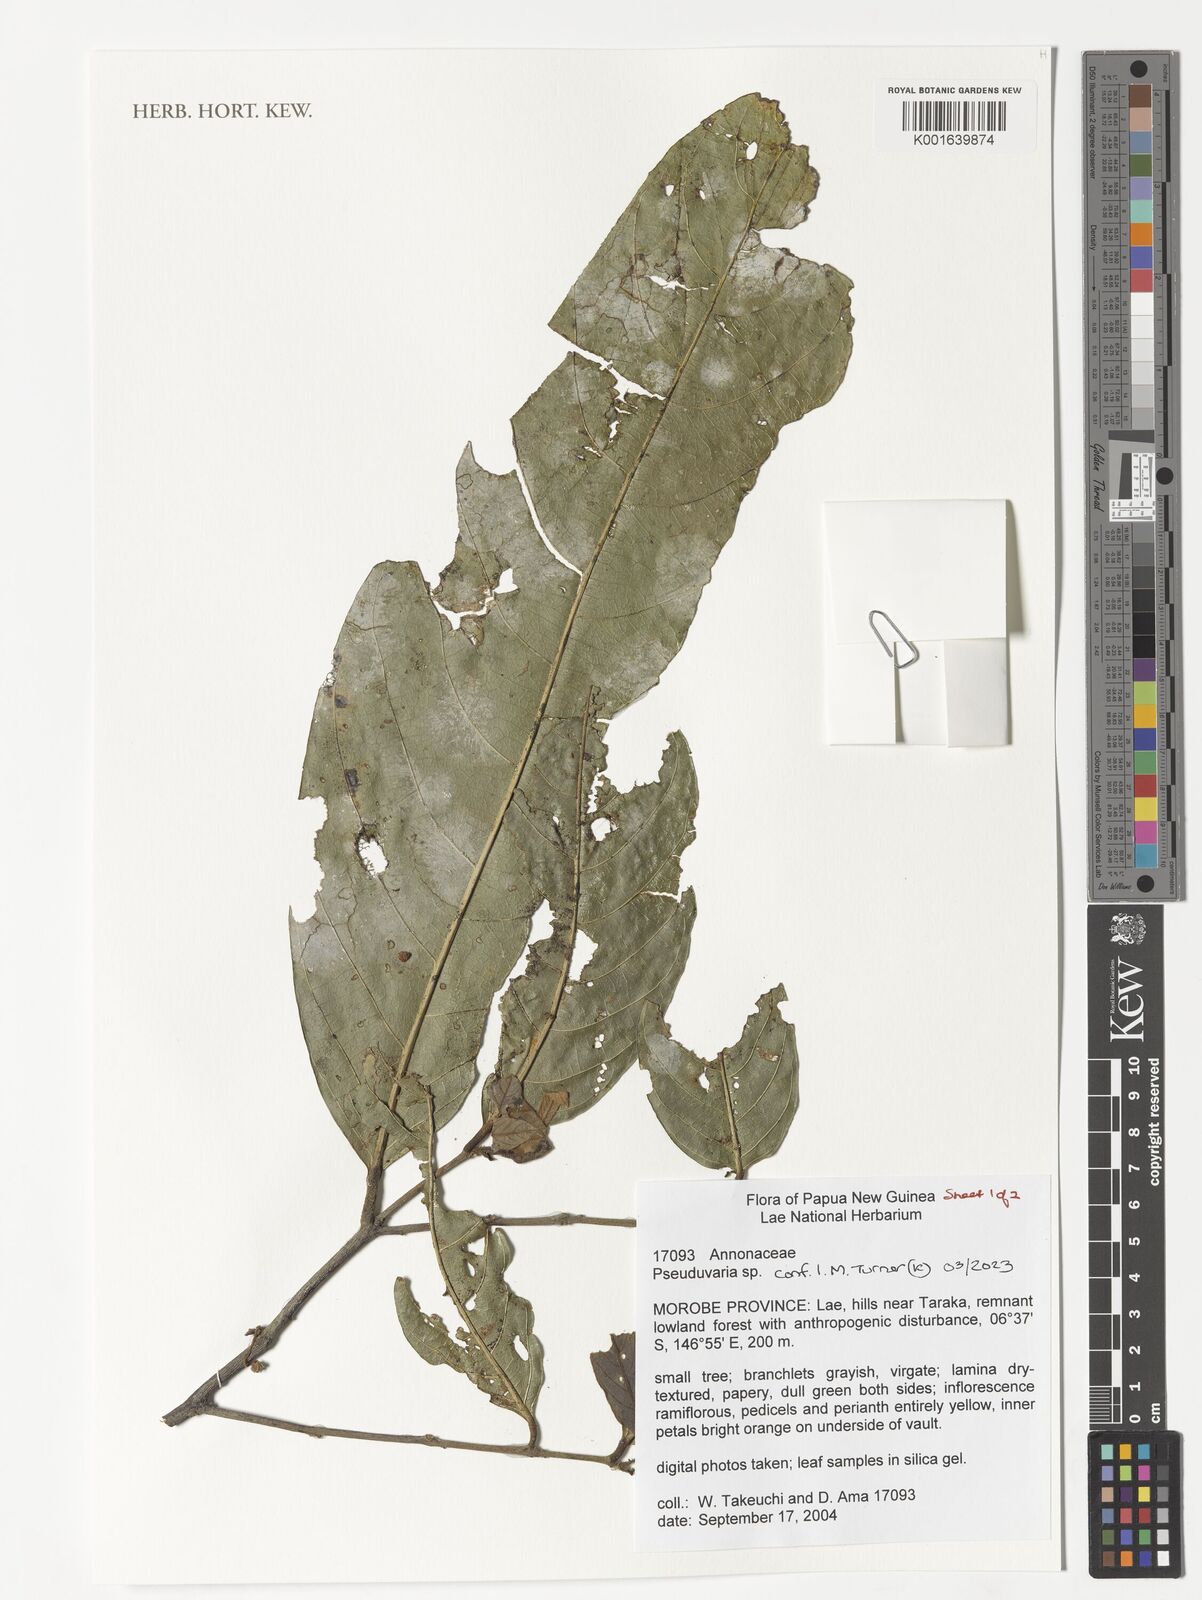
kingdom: Plantae
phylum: Tracheophyta
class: Magnoliopsida
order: Magnoliales
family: Annonaceae
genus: Pseuduvaria
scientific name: Pseuduvaria
